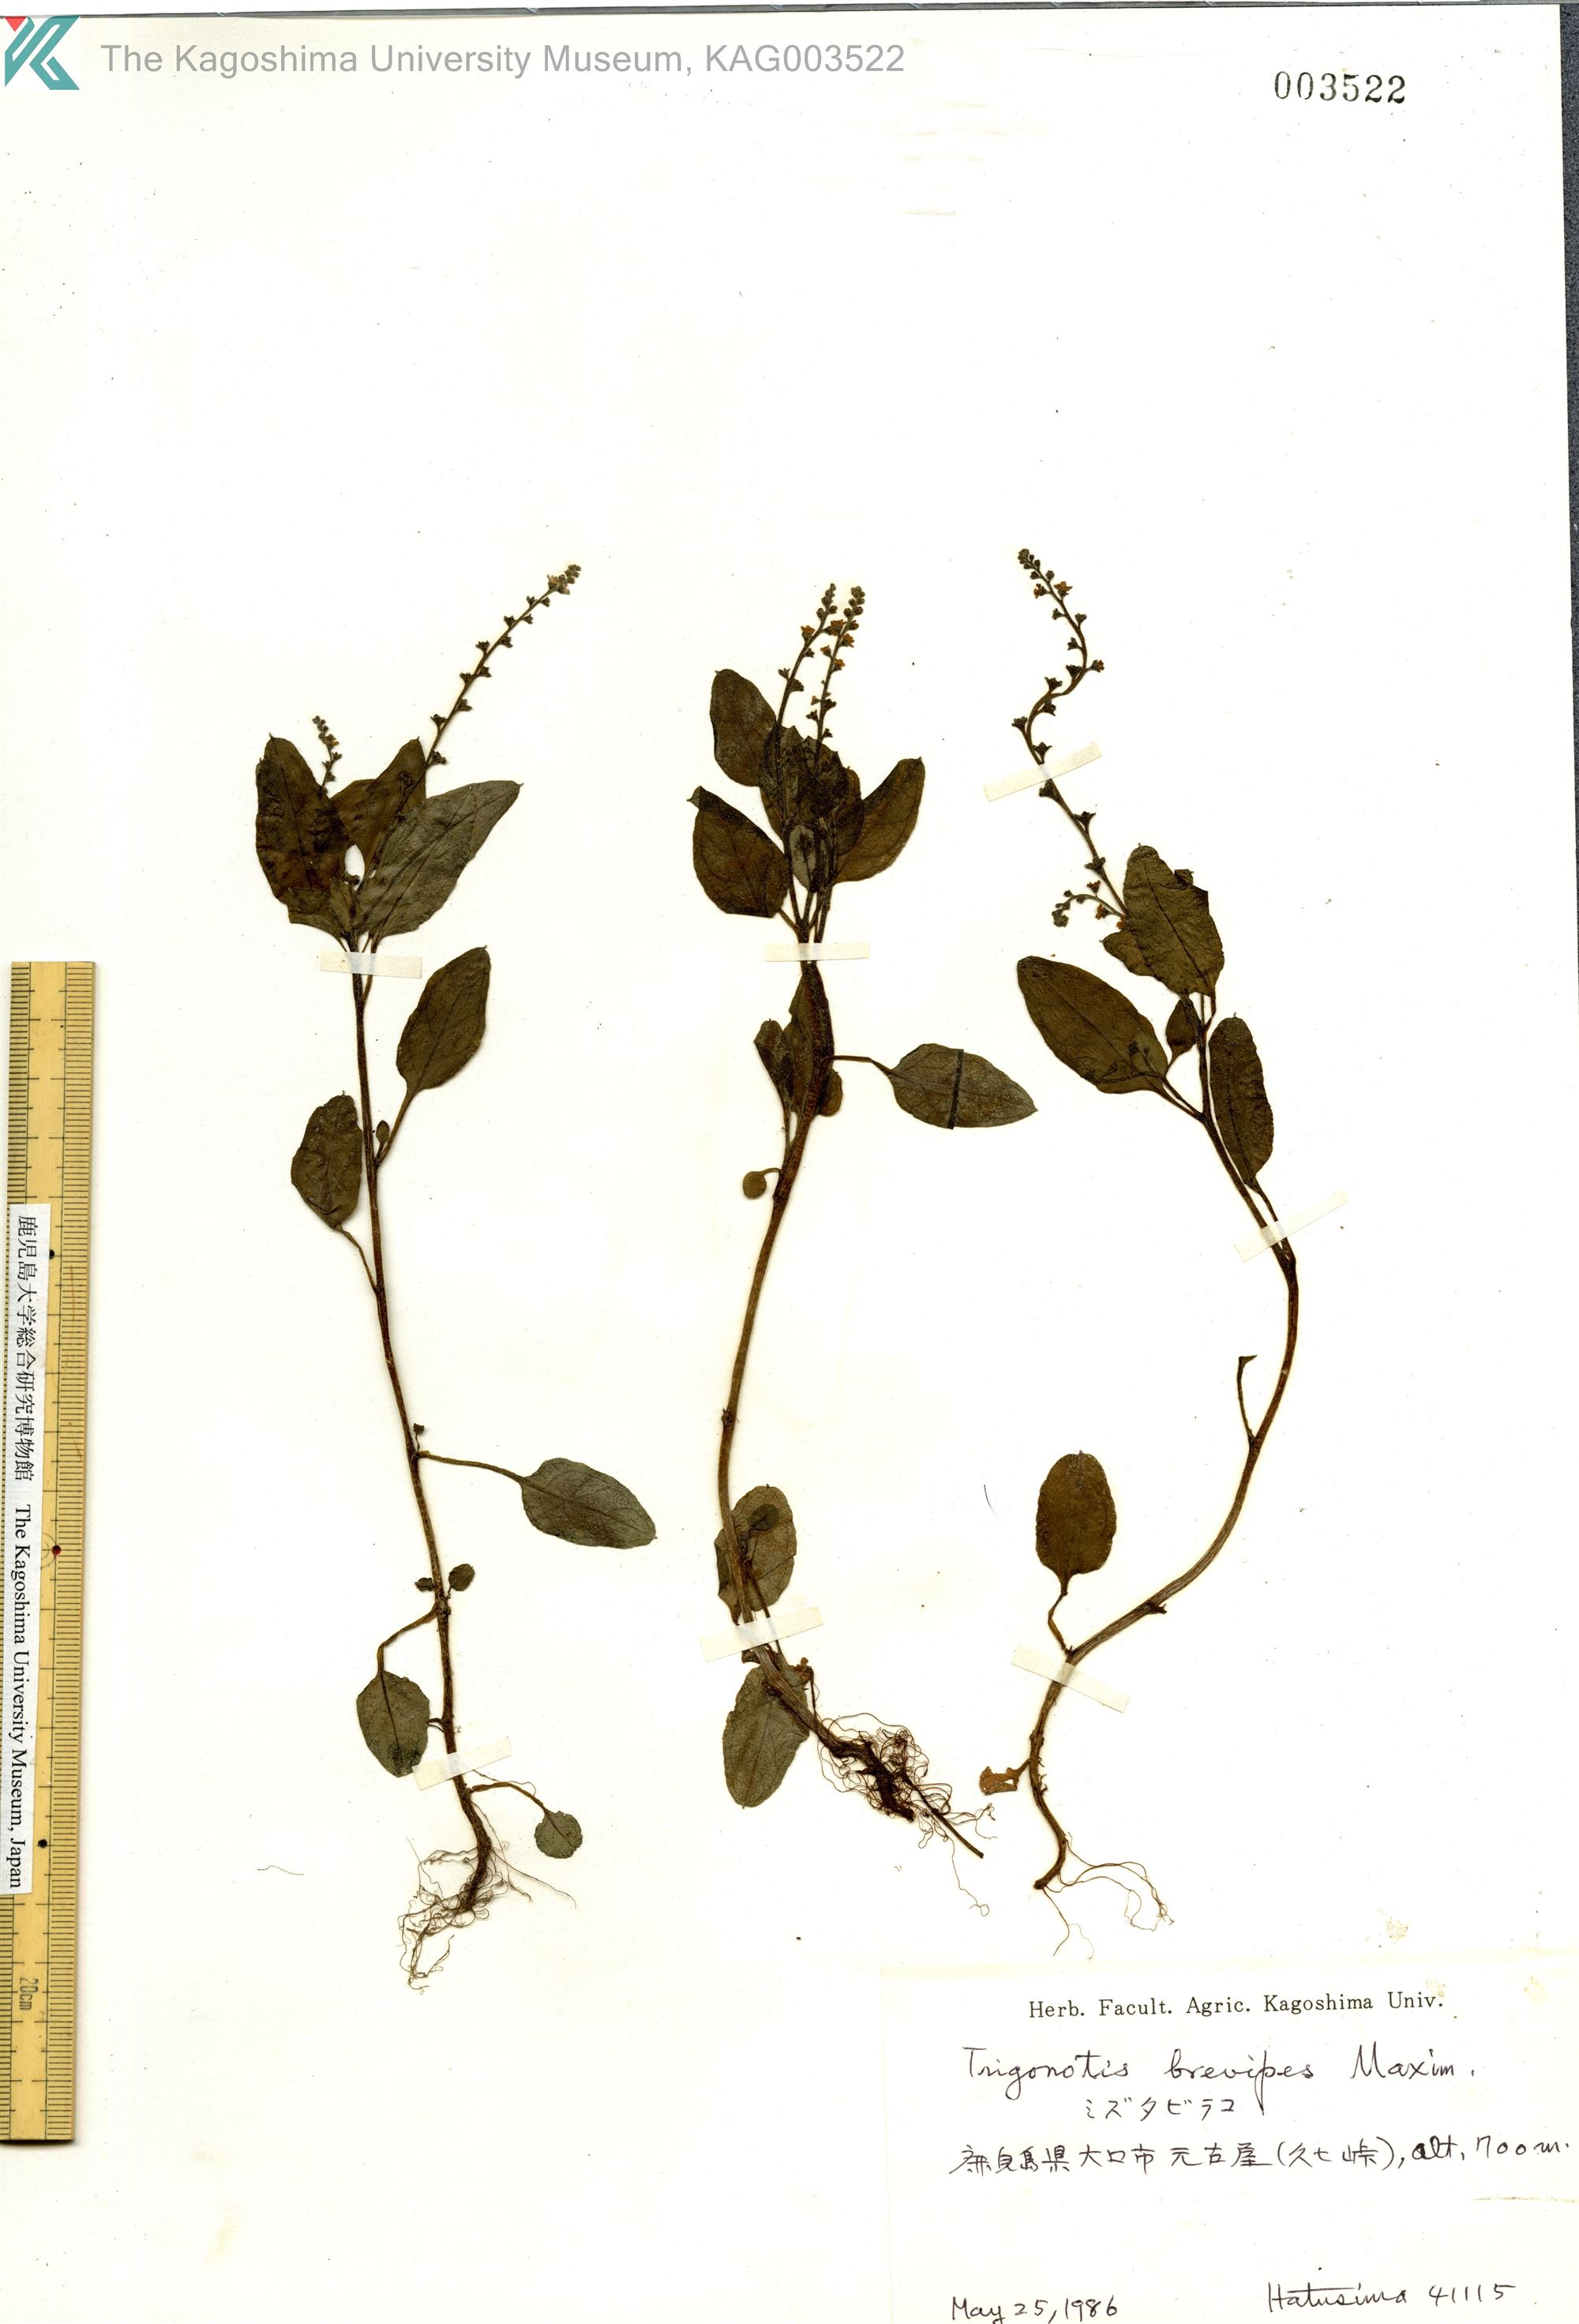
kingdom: Plantae
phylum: Tracheophyta
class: Magnoliopsida
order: Boraginales
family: Boraginaceae
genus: Trigonotis
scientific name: Trigonotis brevipes
